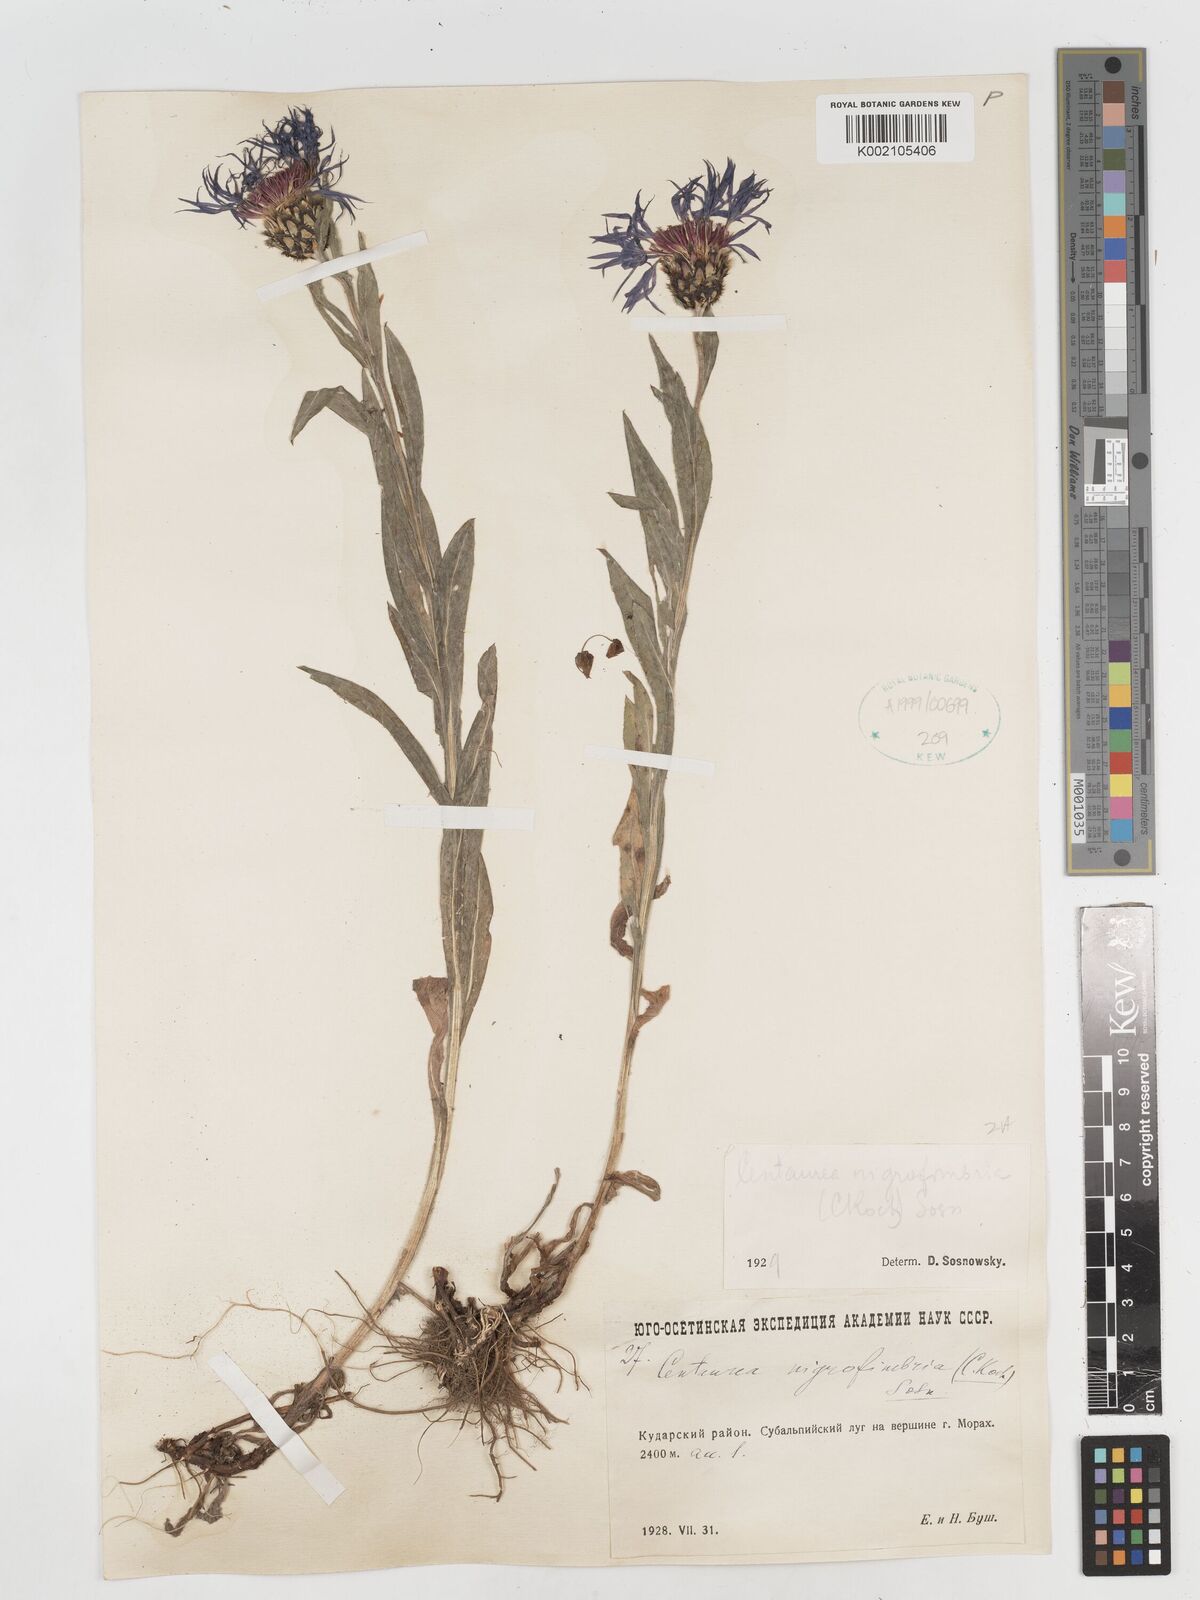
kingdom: Plantae
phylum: Tracheophyta
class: Magnoliopsida
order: Asterales
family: Asteraceae
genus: Centaurea
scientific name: Centaurea nigrofimbria
